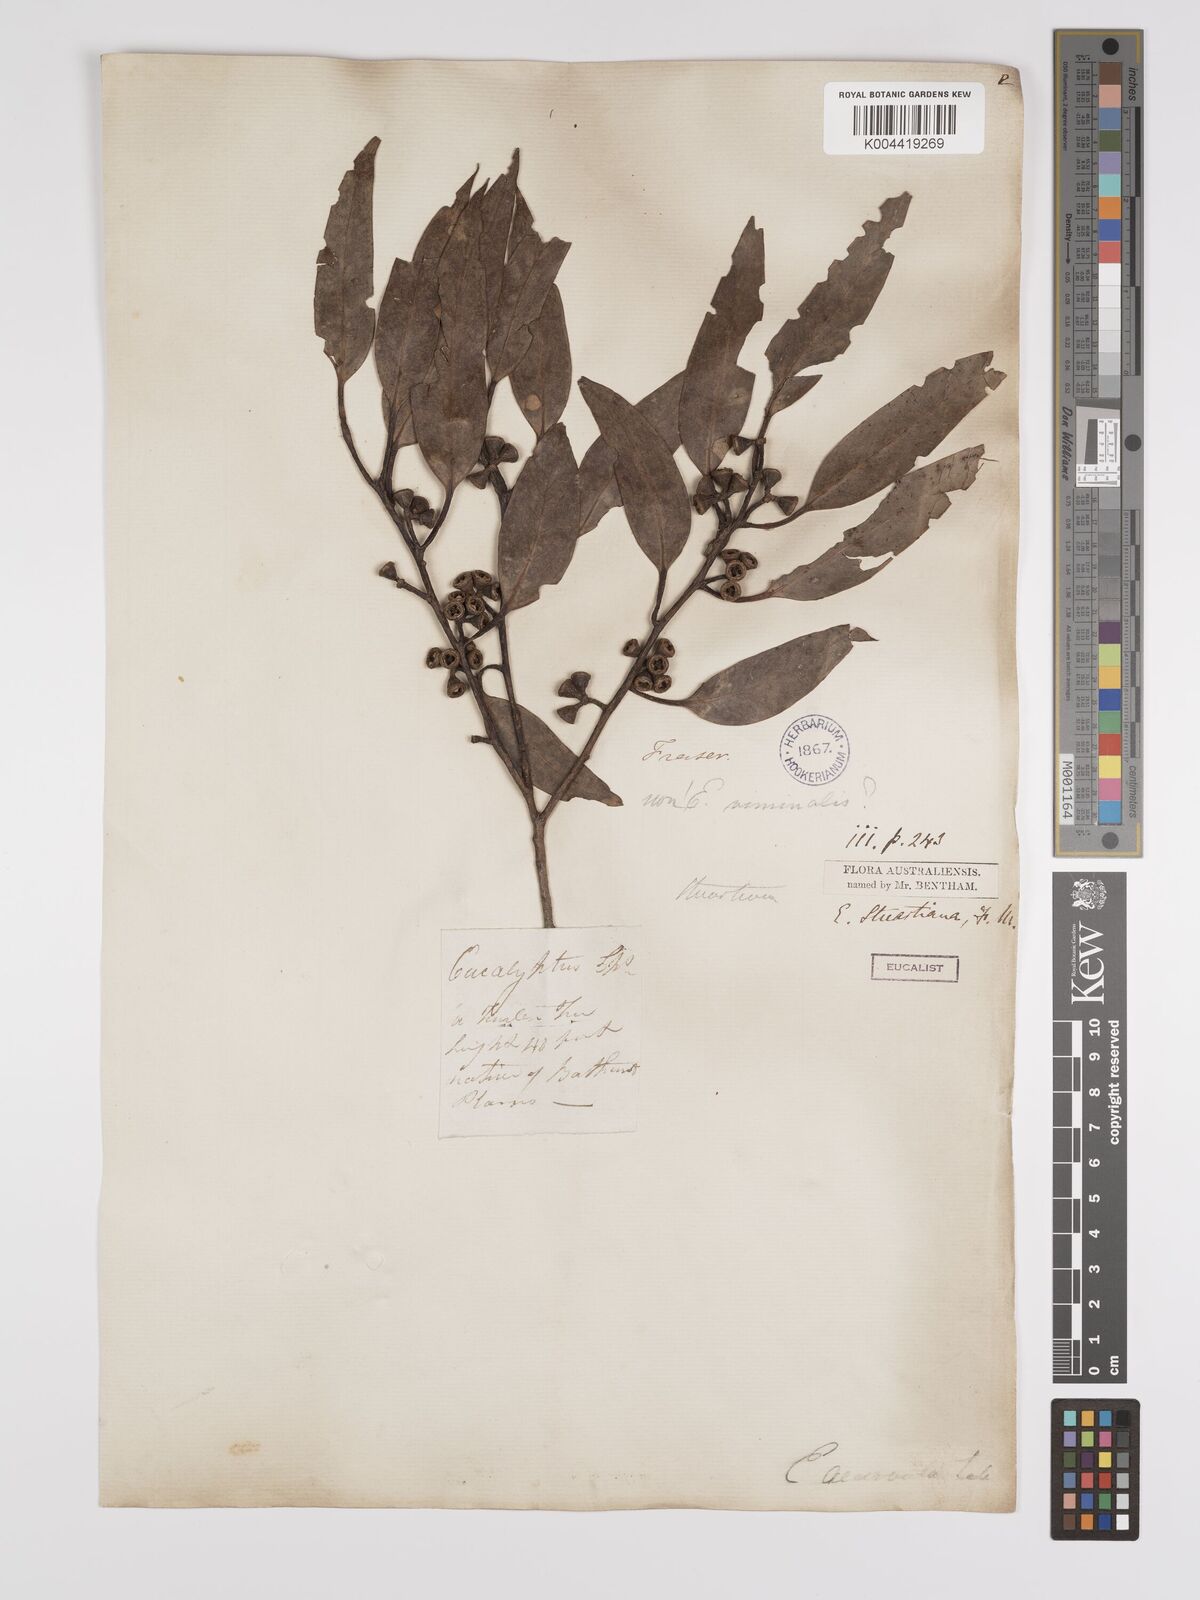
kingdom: Plantae
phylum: Tracheophyta
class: Magnoliopsida
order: Myrtales
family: Myrtaceae
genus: Eucalyptus
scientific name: Eucalyptus ovata
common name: Black-gum
